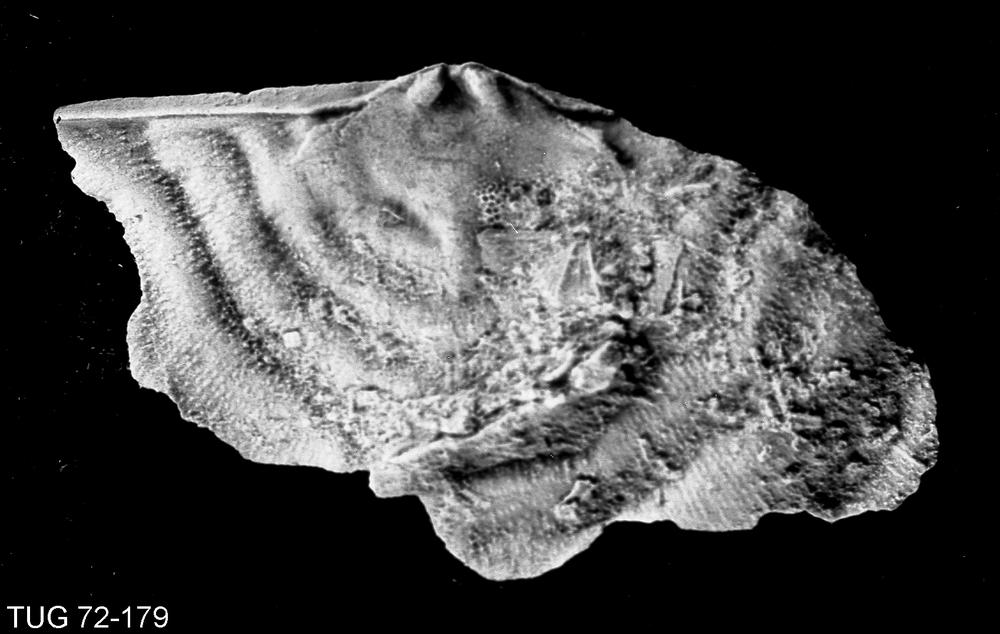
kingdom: Animalia
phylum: Brachiopoda
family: Strophomenidae
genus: Leptaena
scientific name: Leptaena alliku
